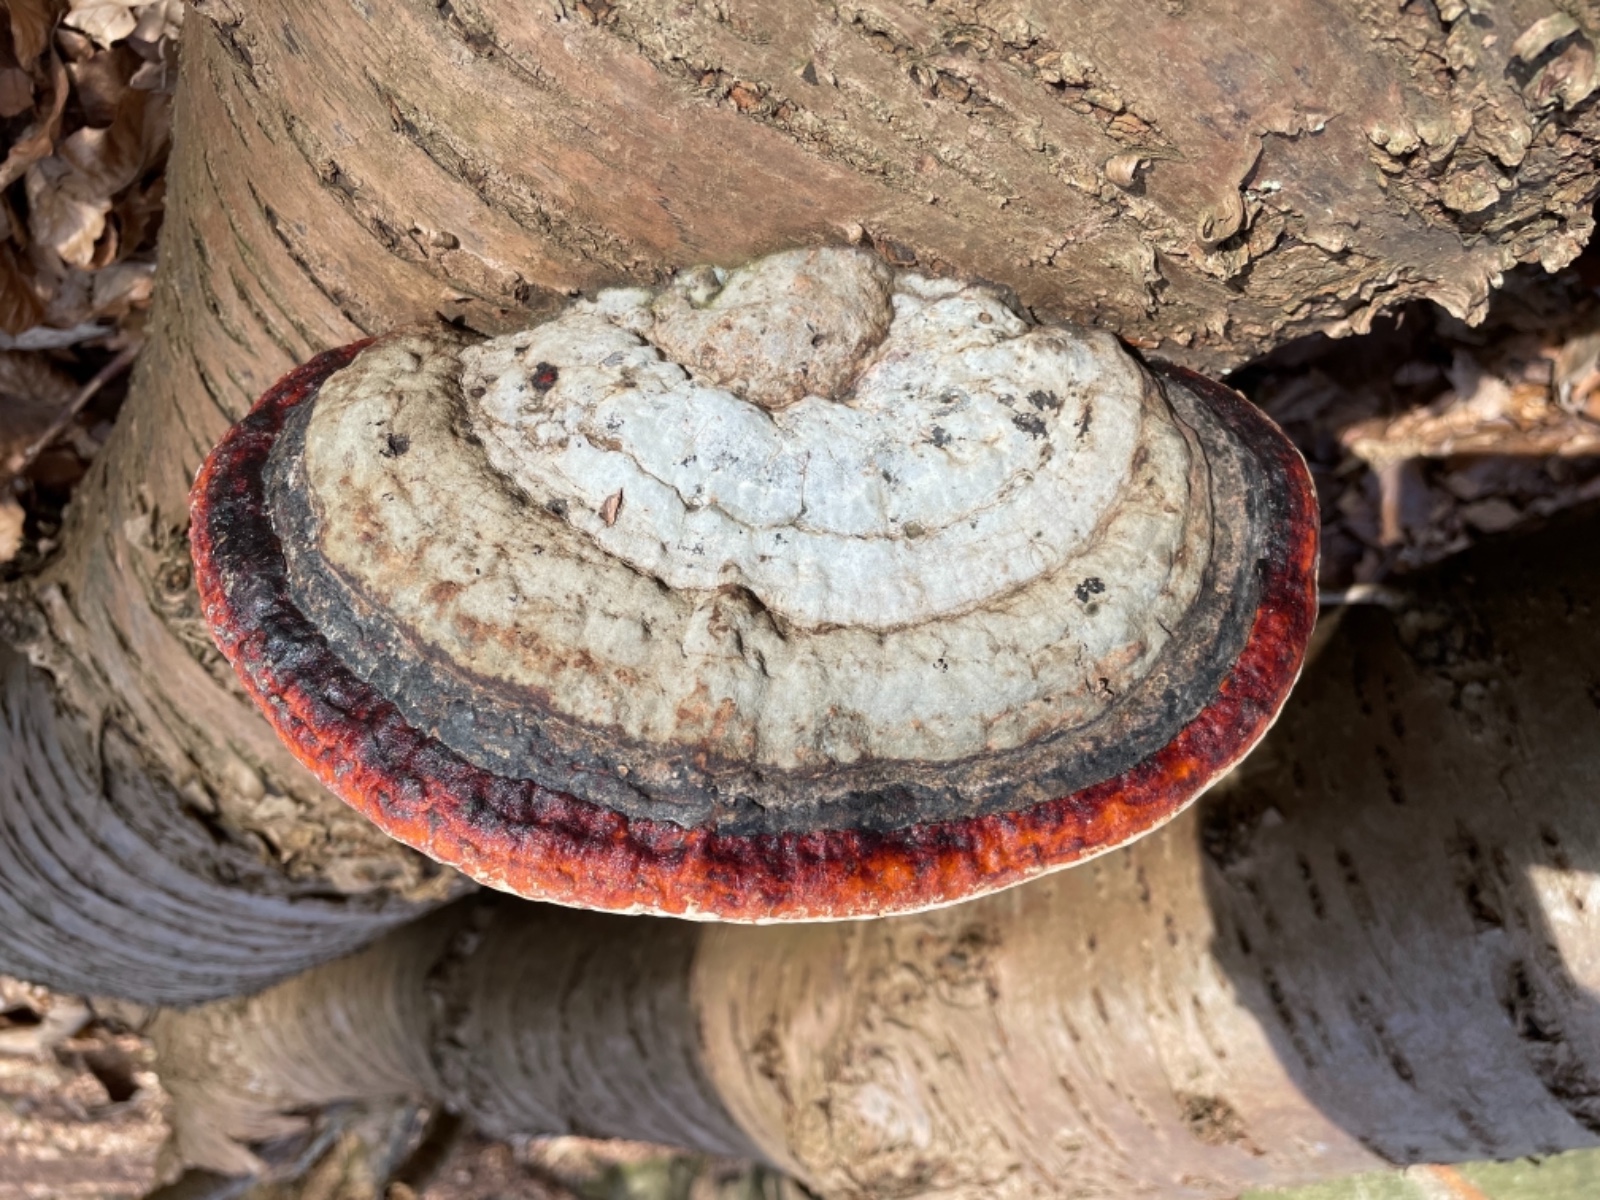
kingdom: Fungi
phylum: Basidiomycota
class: Agaricomycetes
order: Polyporales
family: Fomitopsidaceae
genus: Fomitopsis
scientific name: Fomitopsis pinicola
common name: randbæltet hovporesvamp
